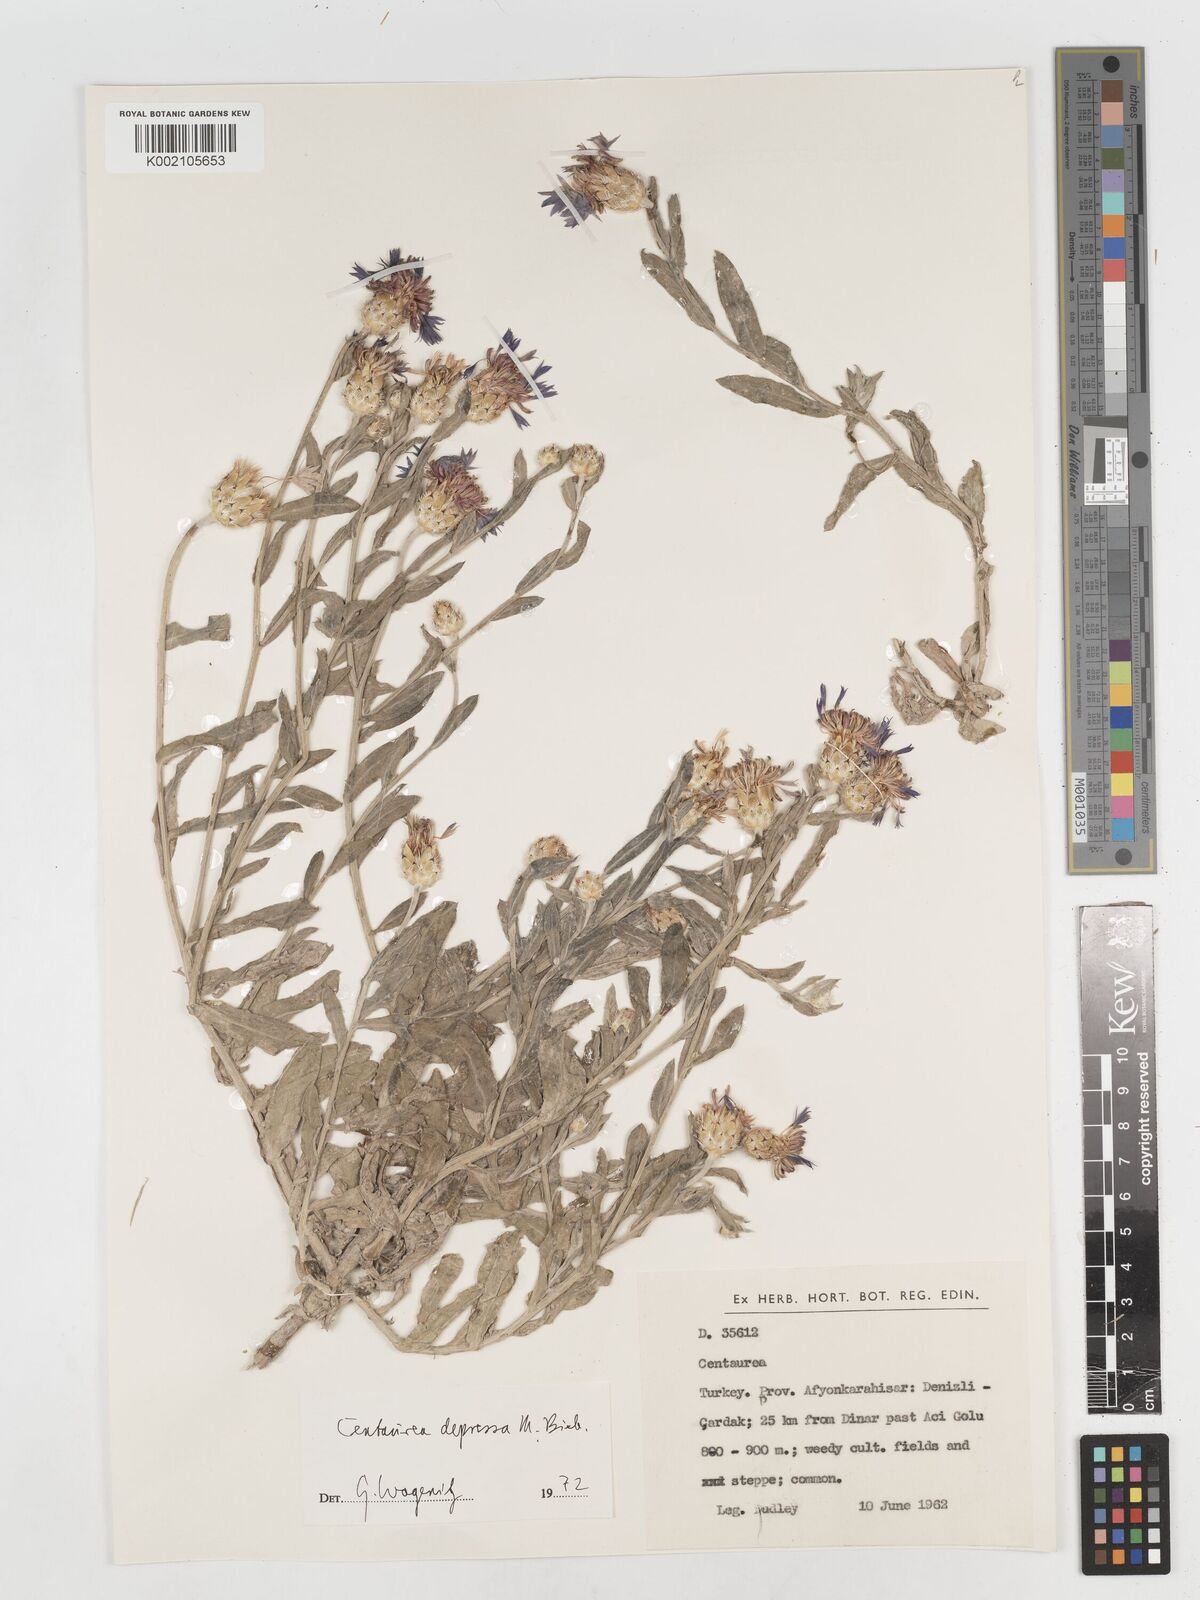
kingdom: Plantae
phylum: Tracheophyta
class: Magnoliopsida
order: Asterales
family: Asteraceae
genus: Centaurea
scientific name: Centaurea depressa
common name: Iranian knapweed
